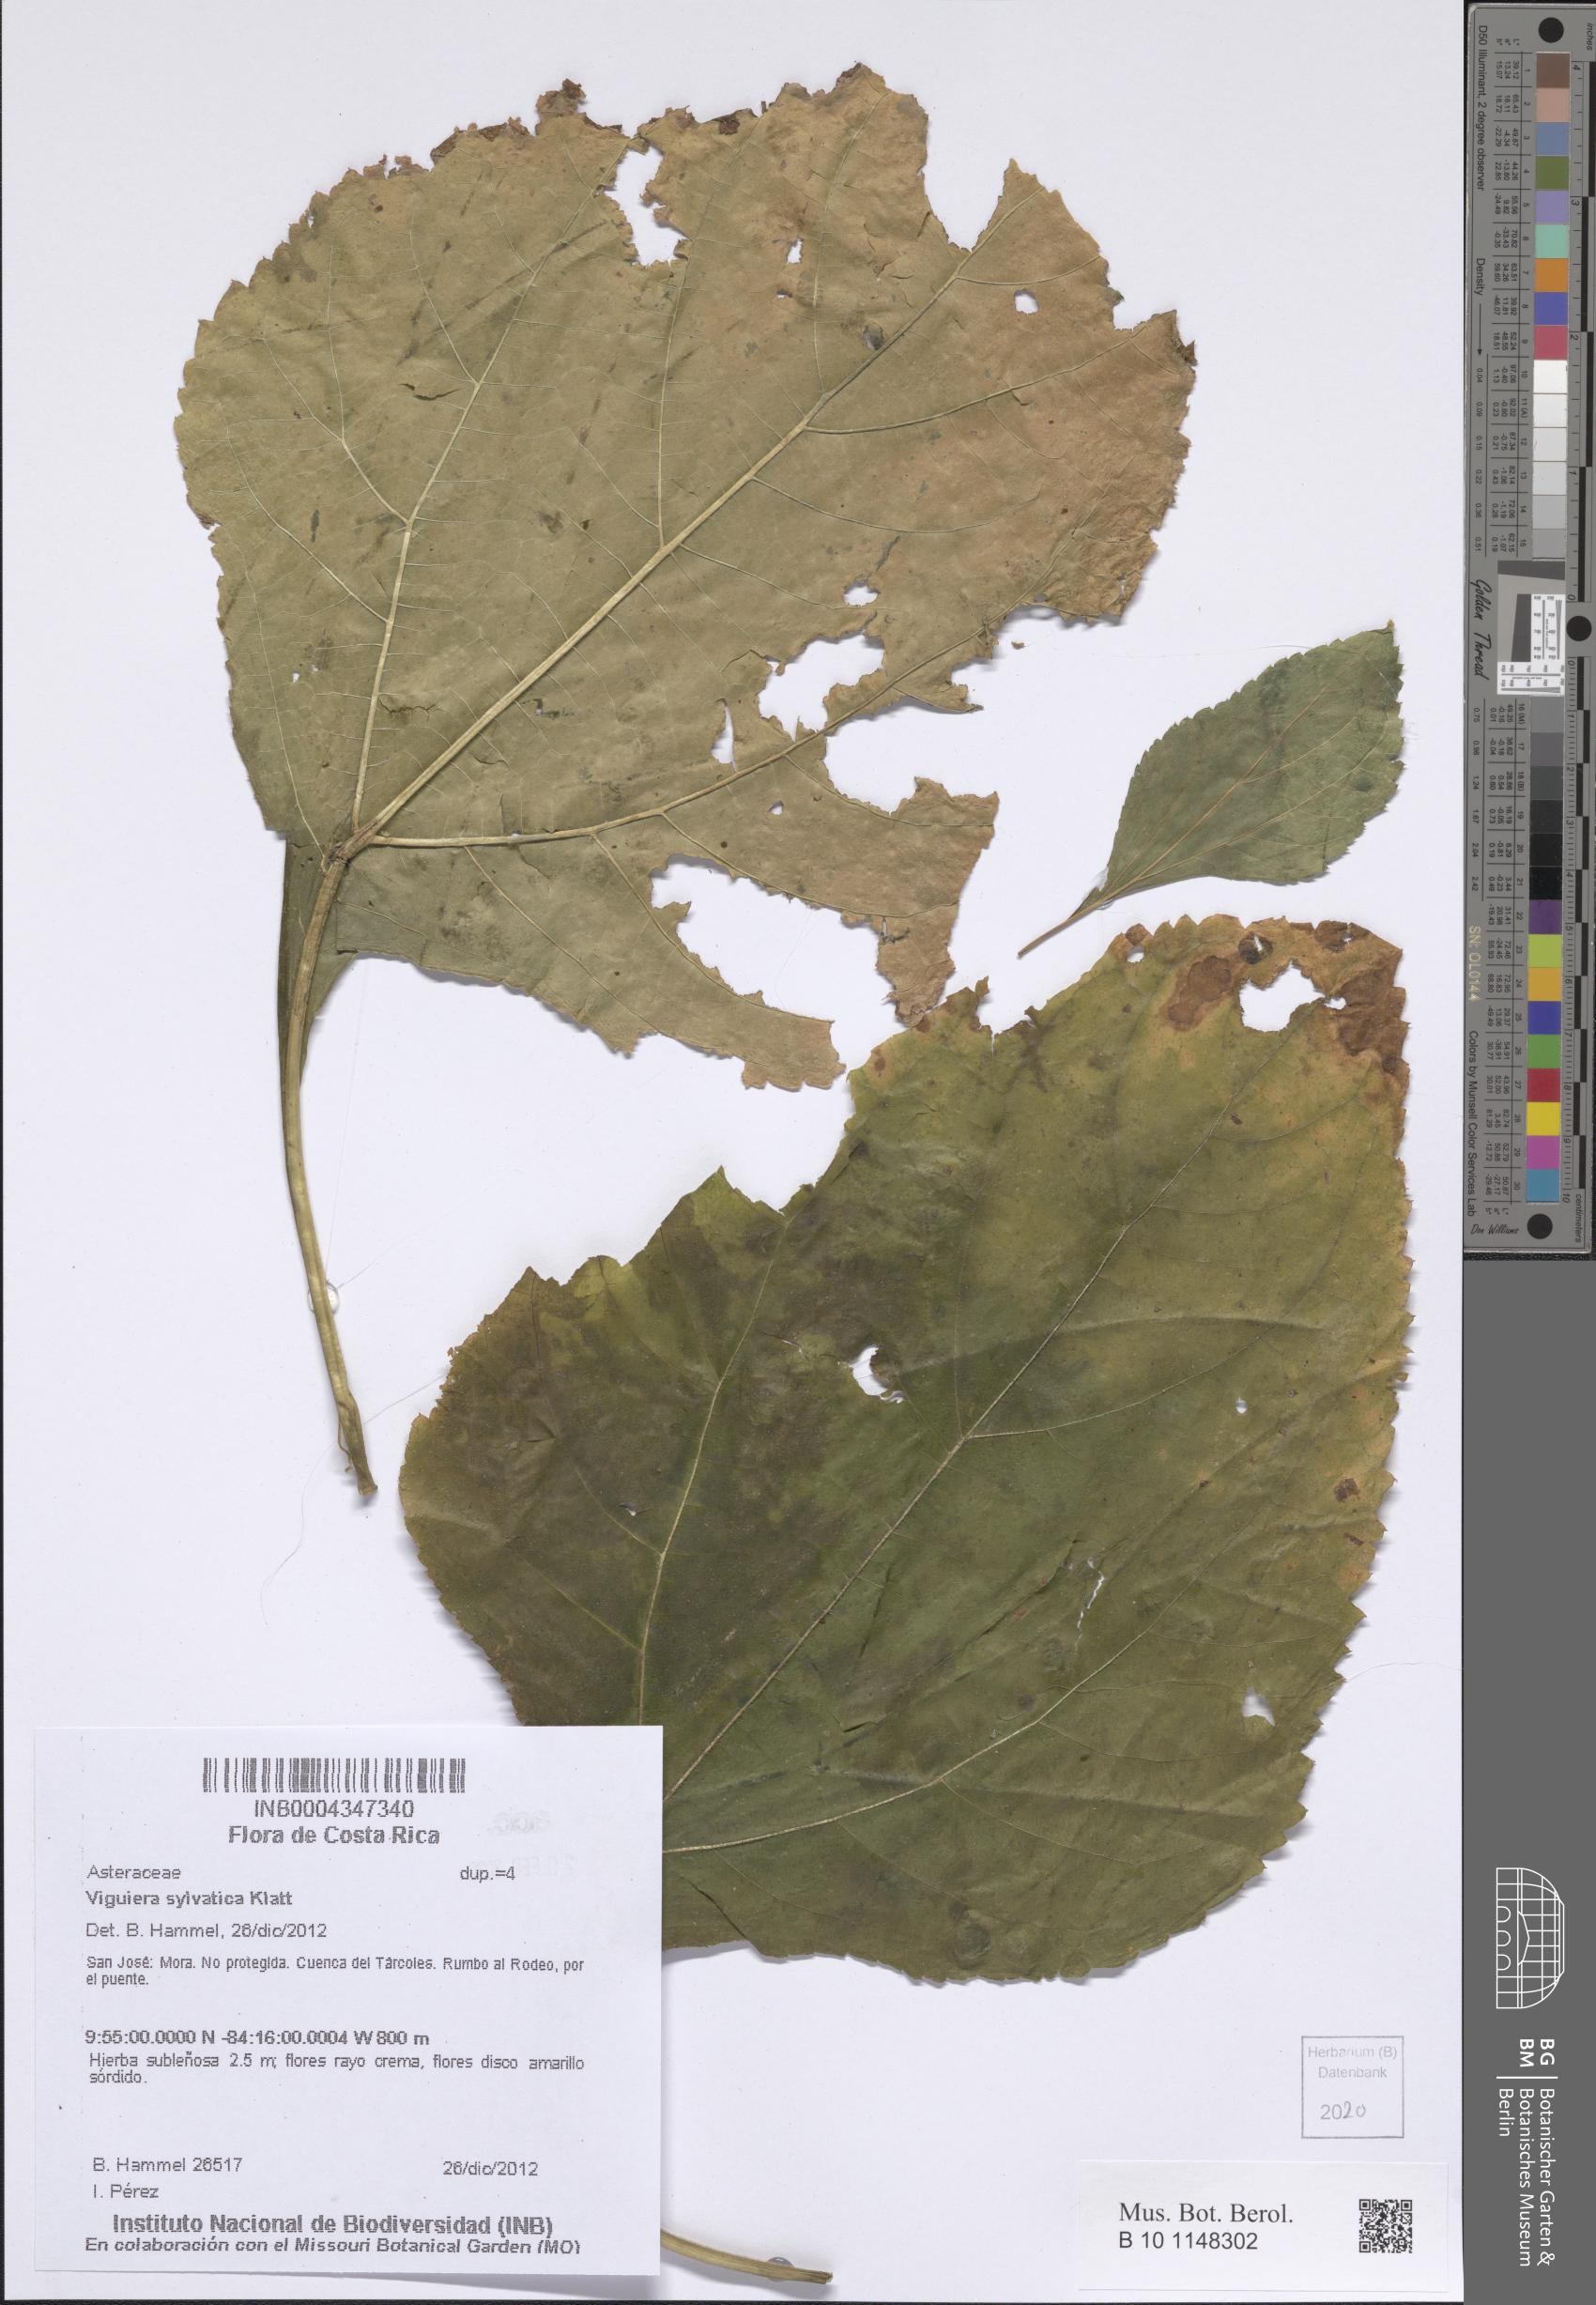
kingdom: Plantae
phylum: Tracheophyta
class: Magnoliopsida
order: Asterales
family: Asteraceae
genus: Dendroviguiera
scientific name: Dendroviguiera sylvatica
